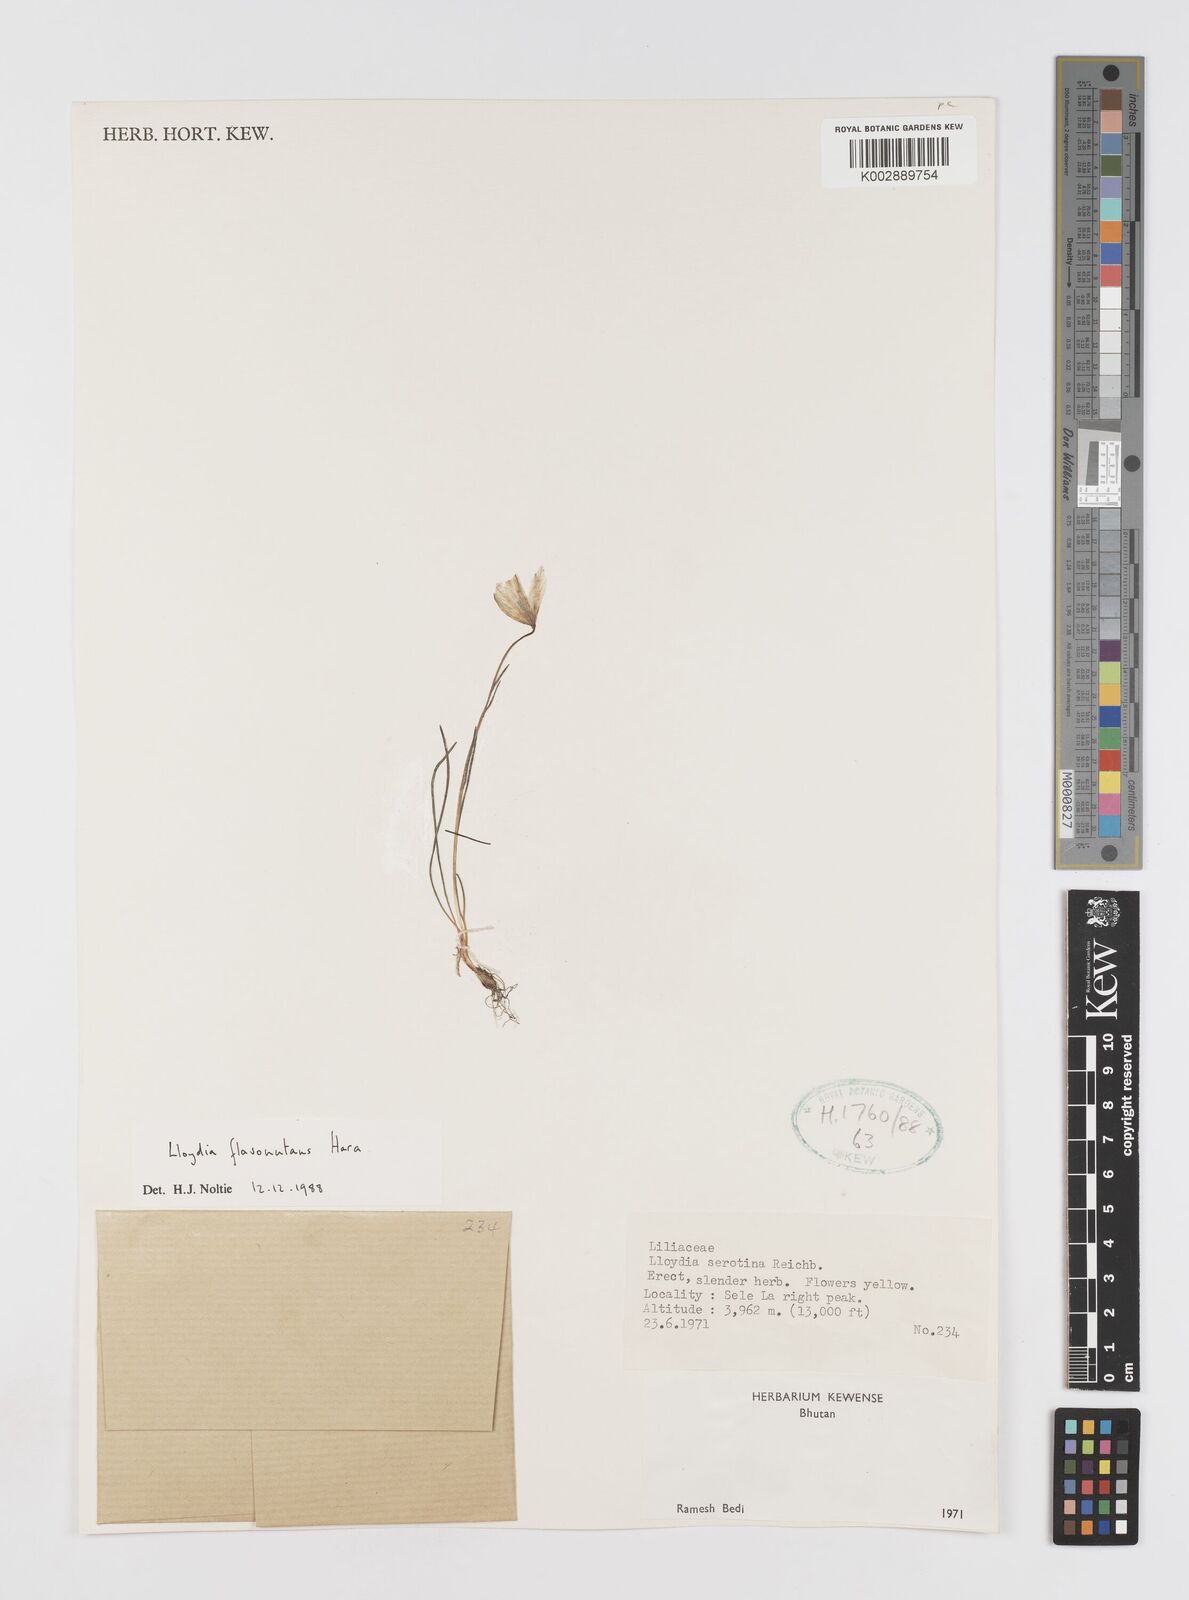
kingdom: Plantae
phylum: Tracheophyta
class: Liliopsida
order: Liliales
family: Liliaceae
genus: Gagea
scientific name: Gagea flavonutans
